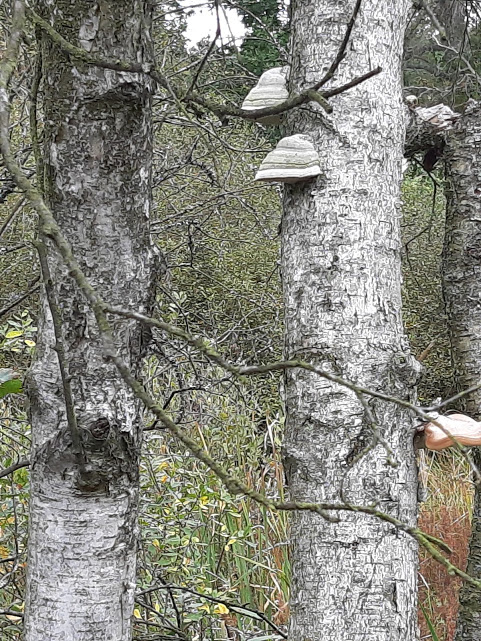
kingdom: Fungi
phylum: Basidiomycota
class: Agaricomycetes
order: Polyporales
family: Polyporaceae
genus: Fomes
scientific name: Fomes fomentarius
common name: tøndersvamp
